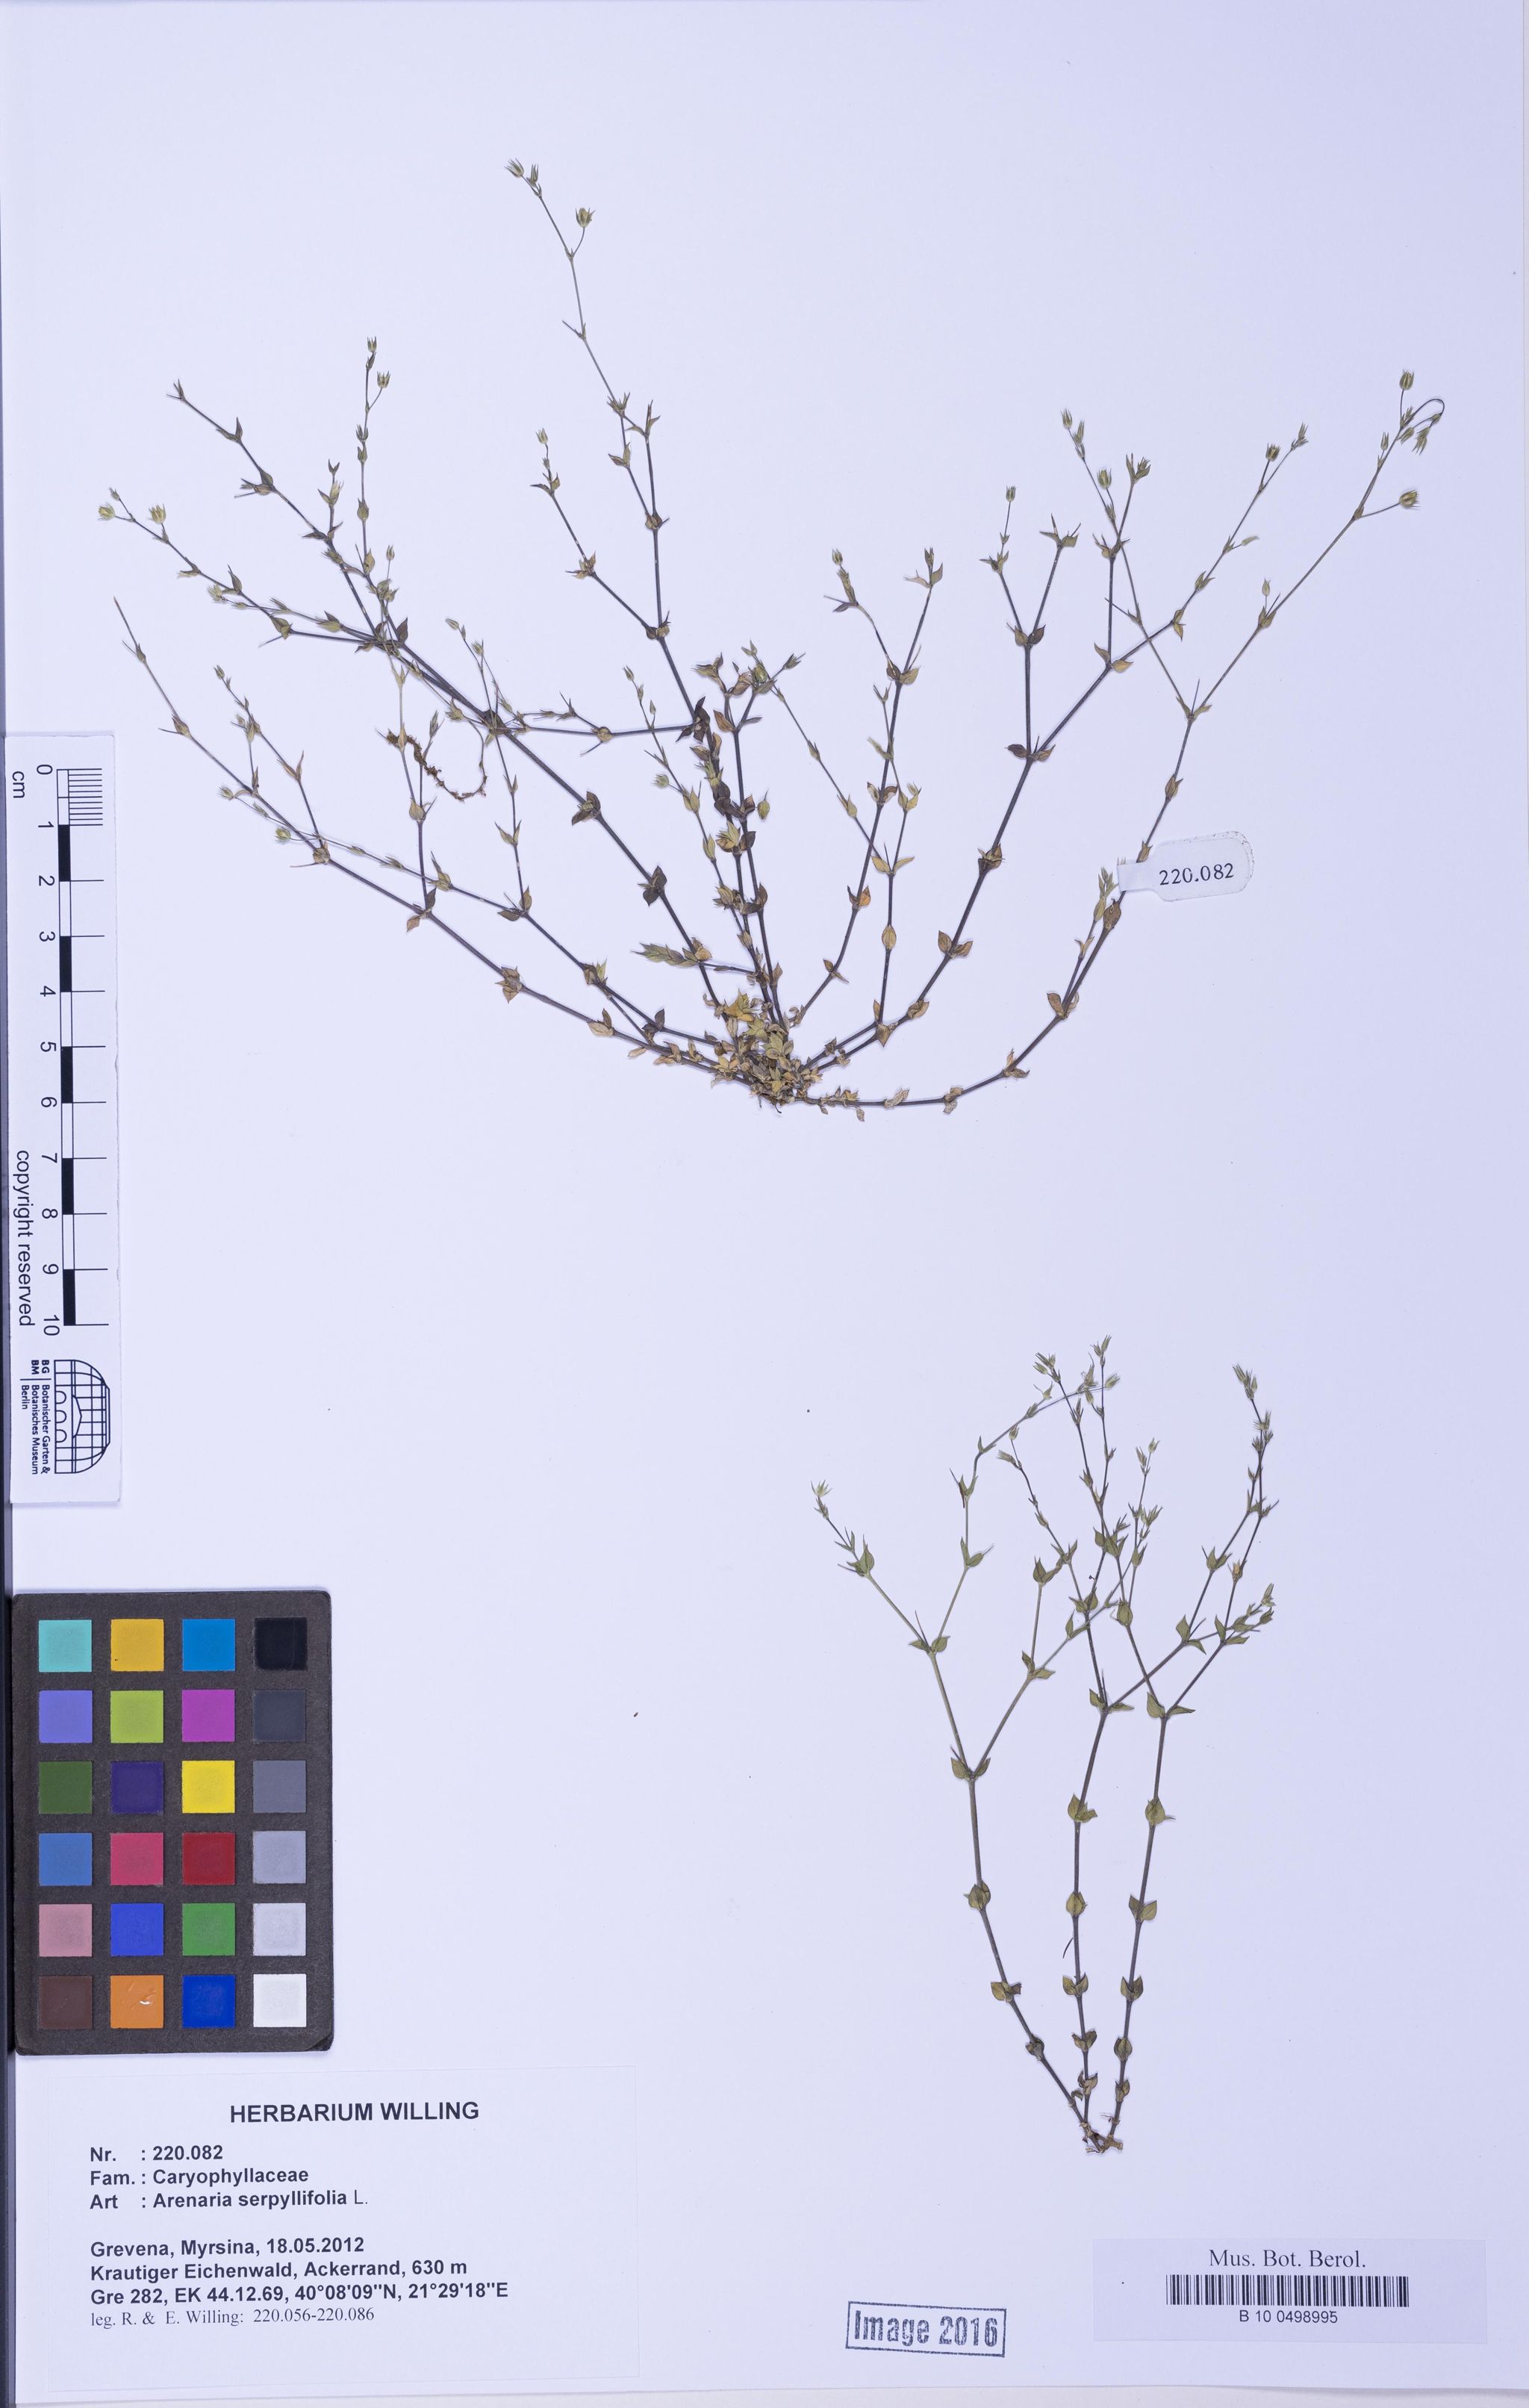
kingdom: Plantae
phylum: Tracheophyta
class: Magnoliopsida
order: Caryophyllales
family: Caryophyllaceae
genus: Arenaria
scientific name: Arenaria serpyllifolia
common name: Thyme-leaved sandwort
